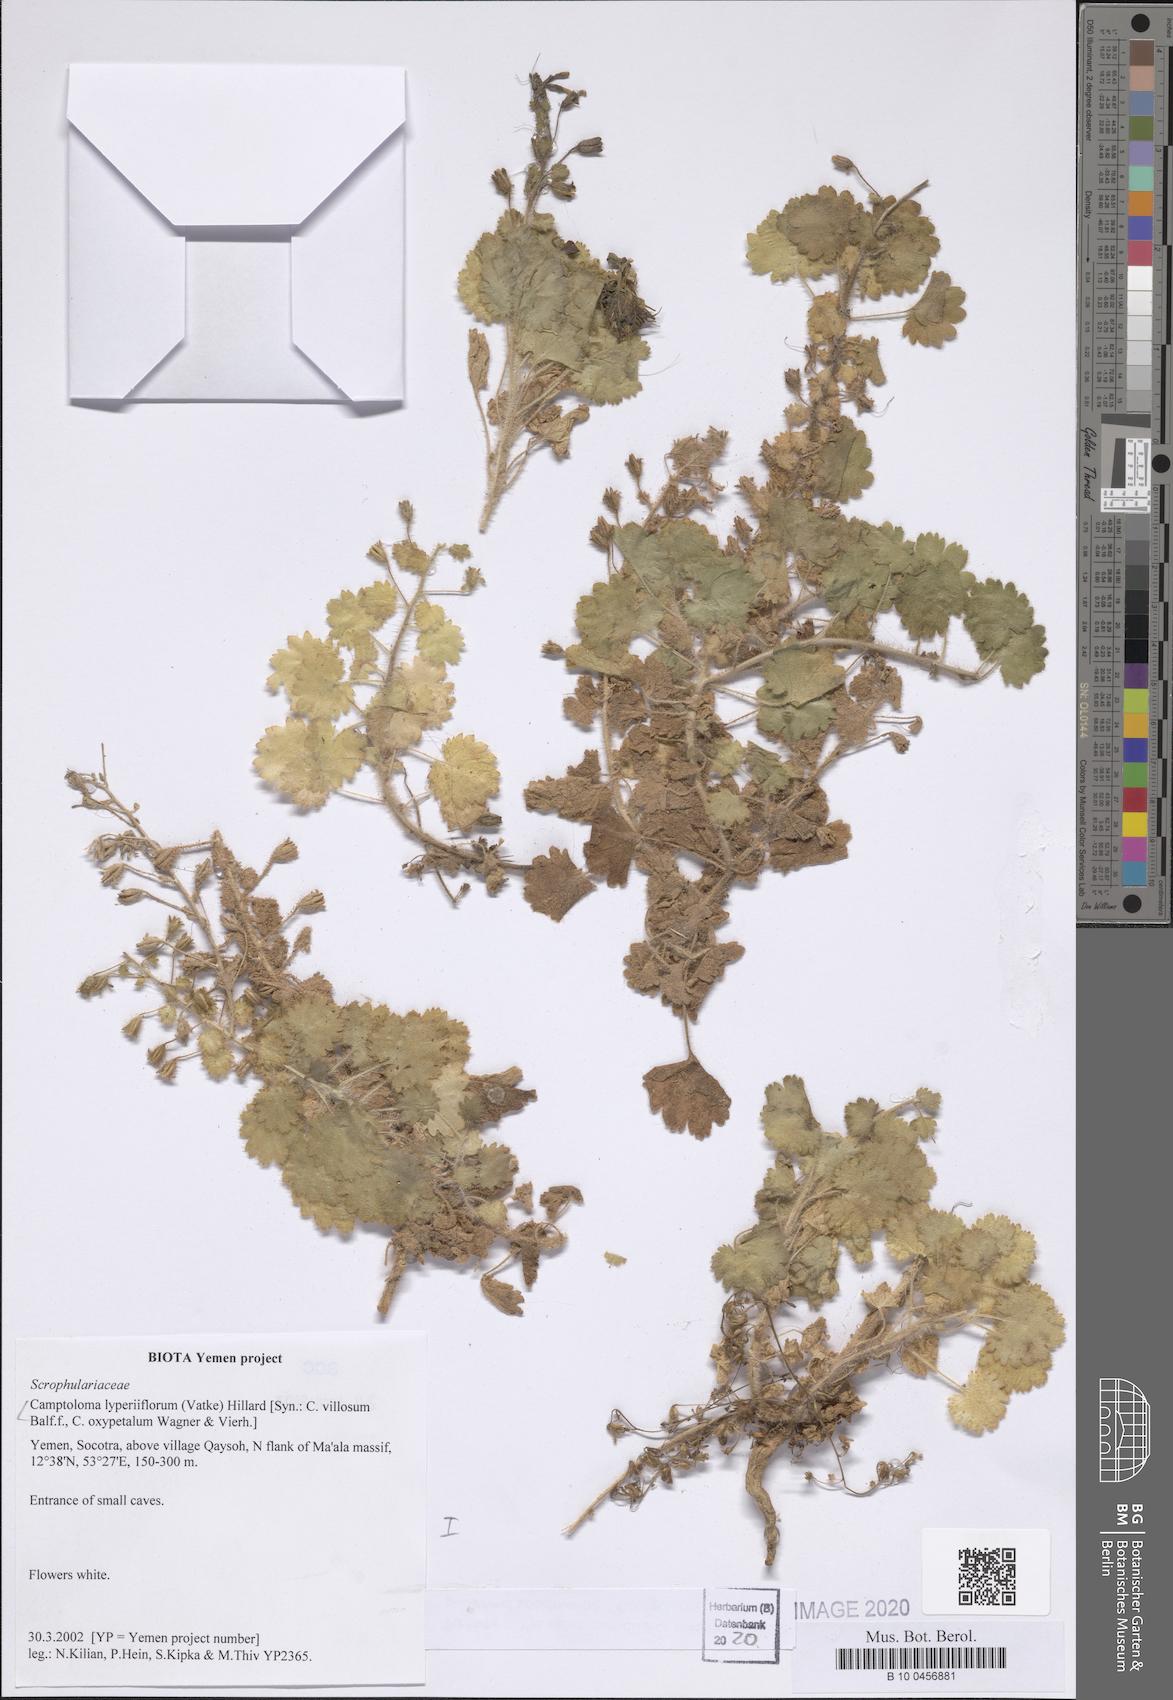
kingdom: Plantae
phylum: Tracheophyta
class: Magnoliopsida
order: Lamiales
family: Scrophulariaceae
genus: Camptoloma
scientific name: Camptoloma lyperiiflorum
